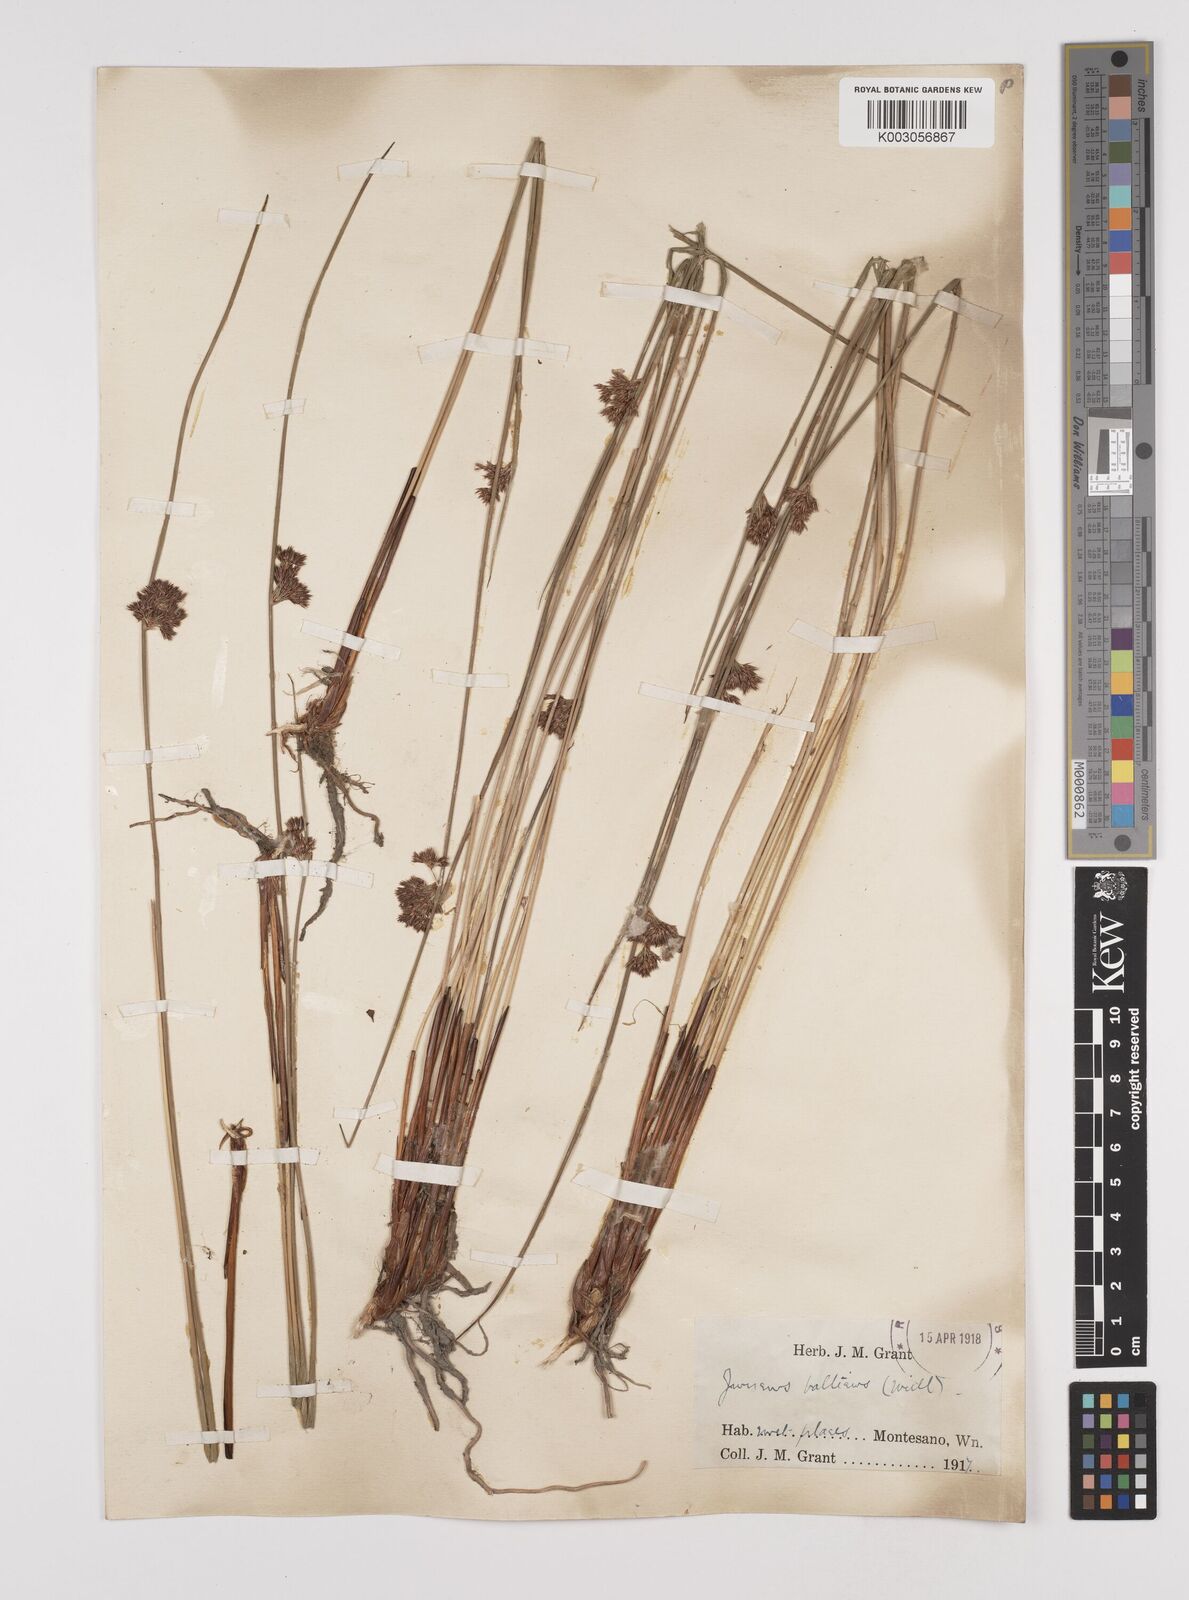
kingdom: Plantae
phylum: Tracheophyta
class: Liliopsida
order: Poales
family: Juncaceae
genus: Juncus
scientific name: Juncus balticus
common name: Baltic rush
